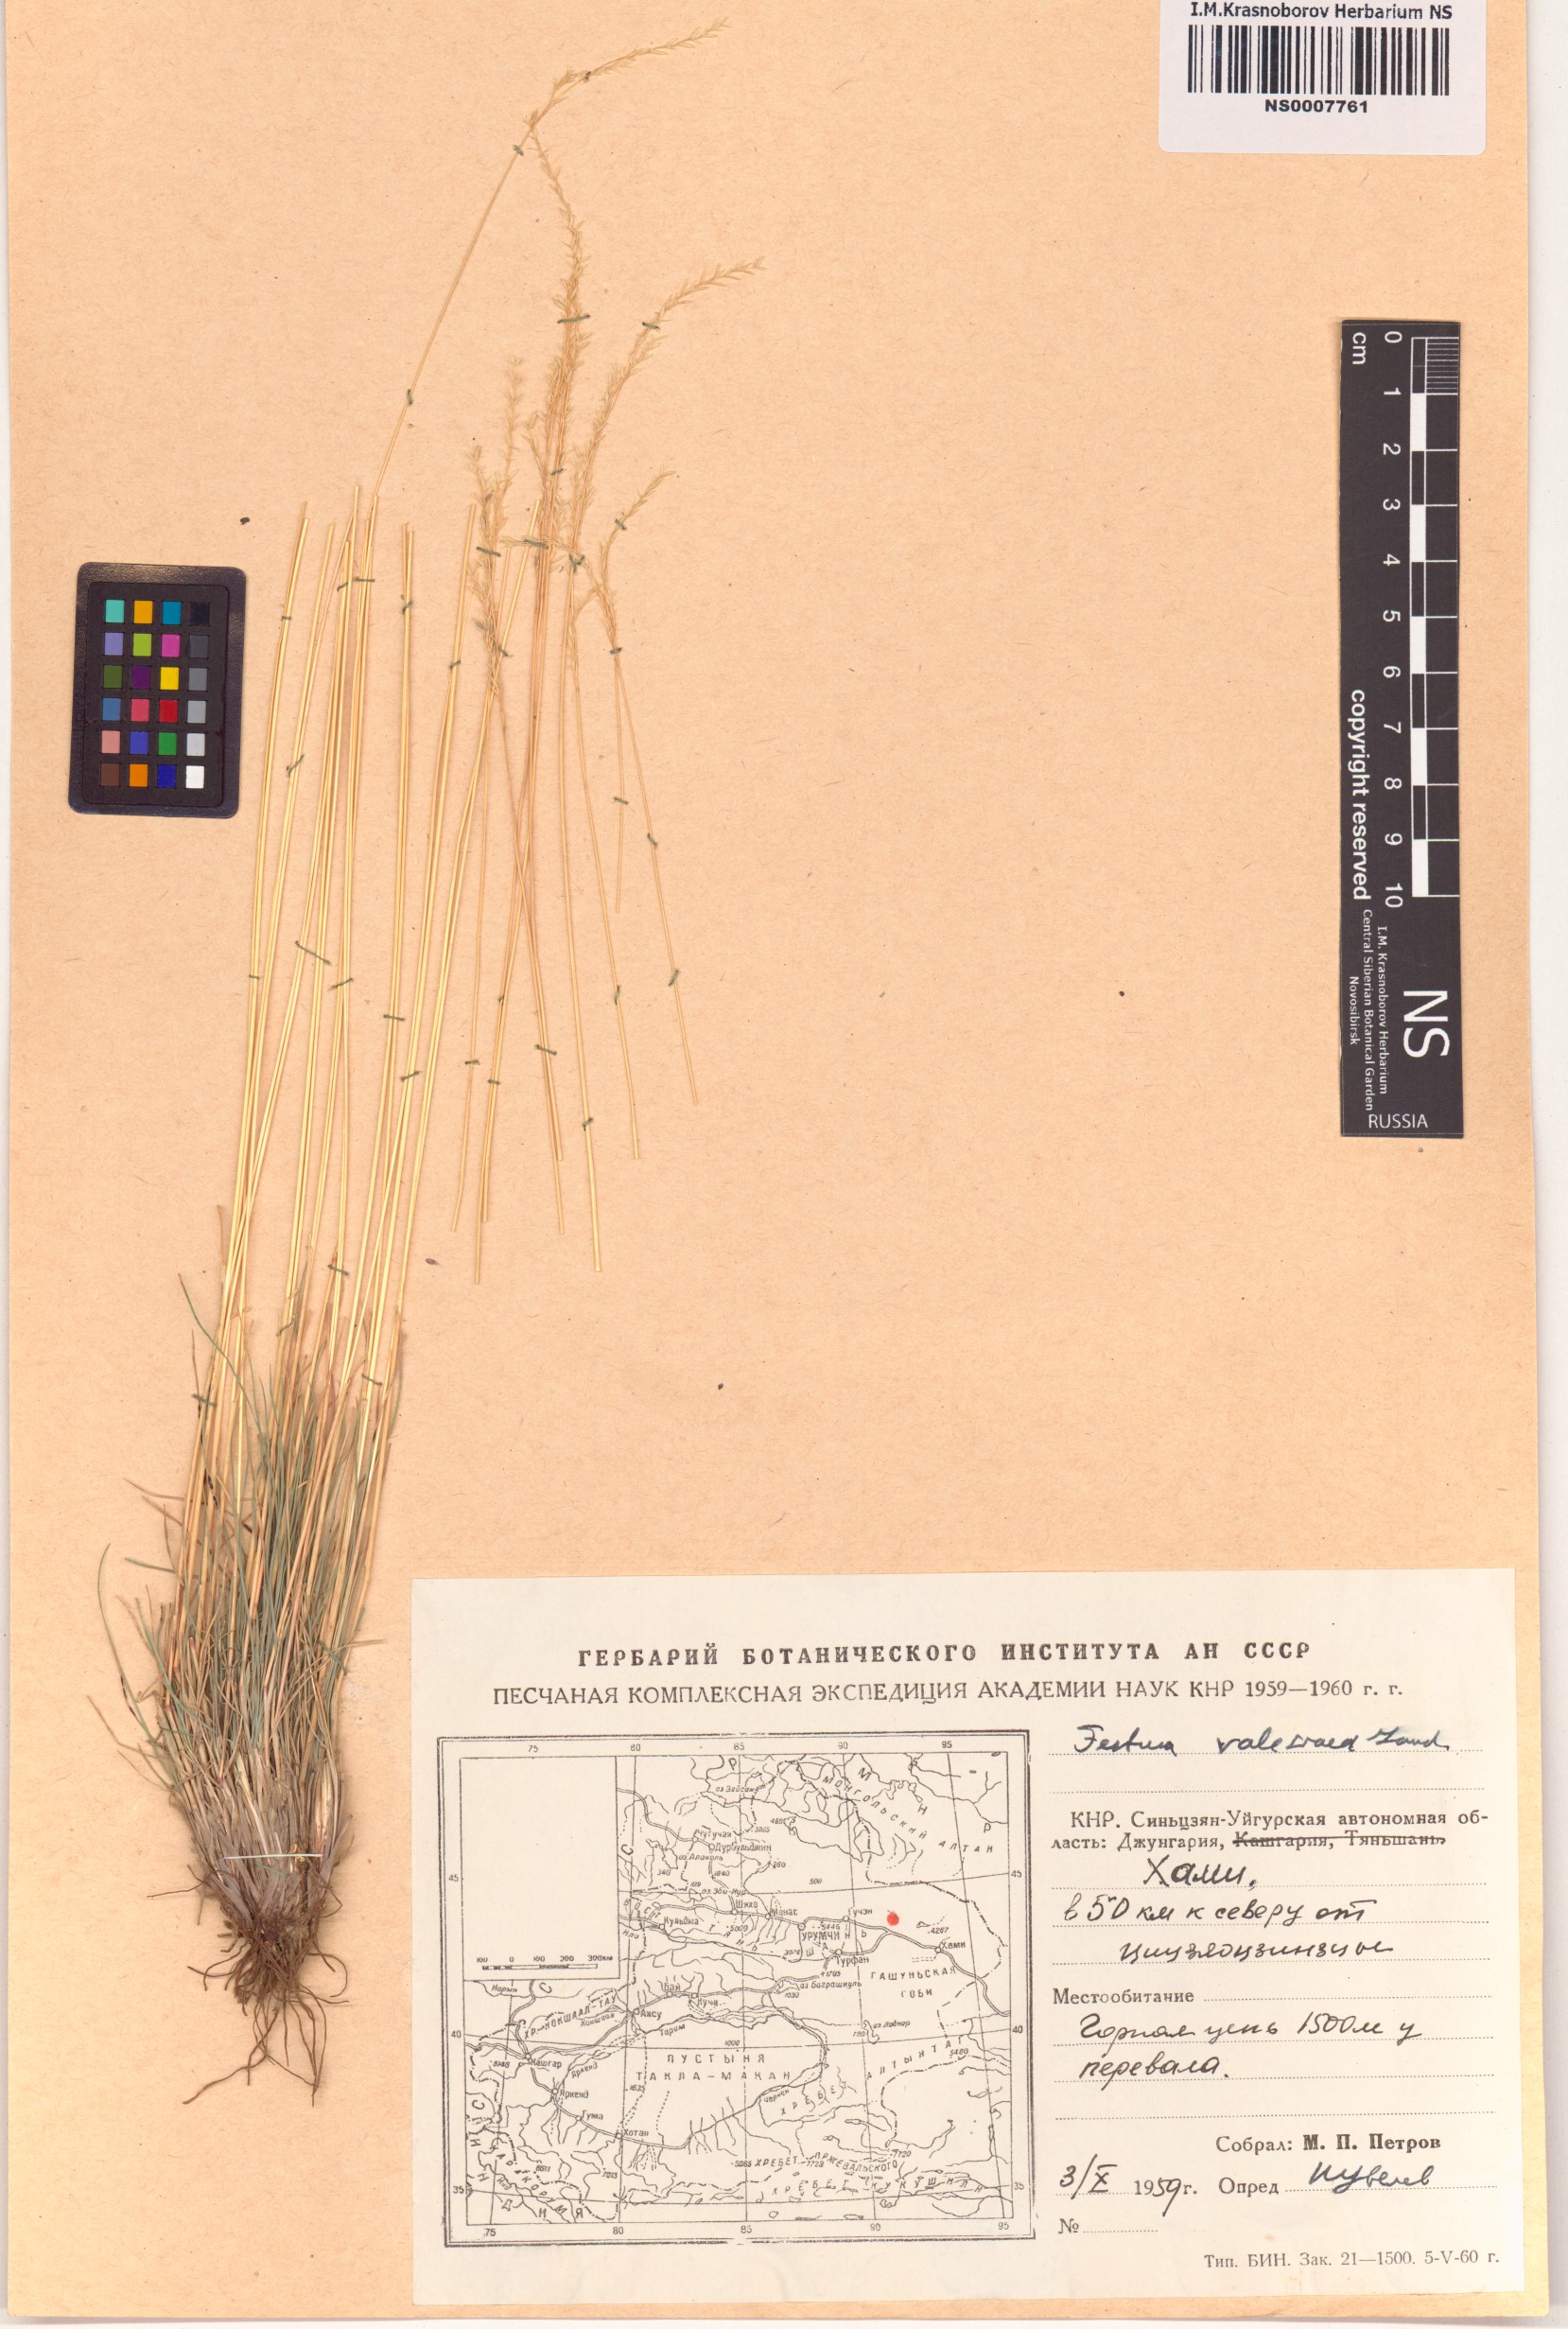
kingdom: Plantae
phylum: Tracheophyta
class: Liliopsida
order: Poales
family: Poaceae
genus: Festuca
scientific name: Festuca valesiaca
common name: Volga fescue
